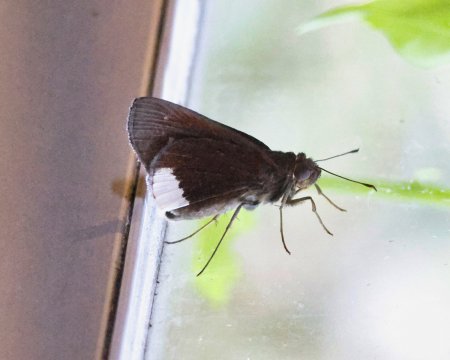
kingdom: Animalia
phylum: Arthropoda
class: Insecta
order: Lepidoptera
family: Hesperiidae
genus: Cobalus
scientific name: Cobalus virbius
